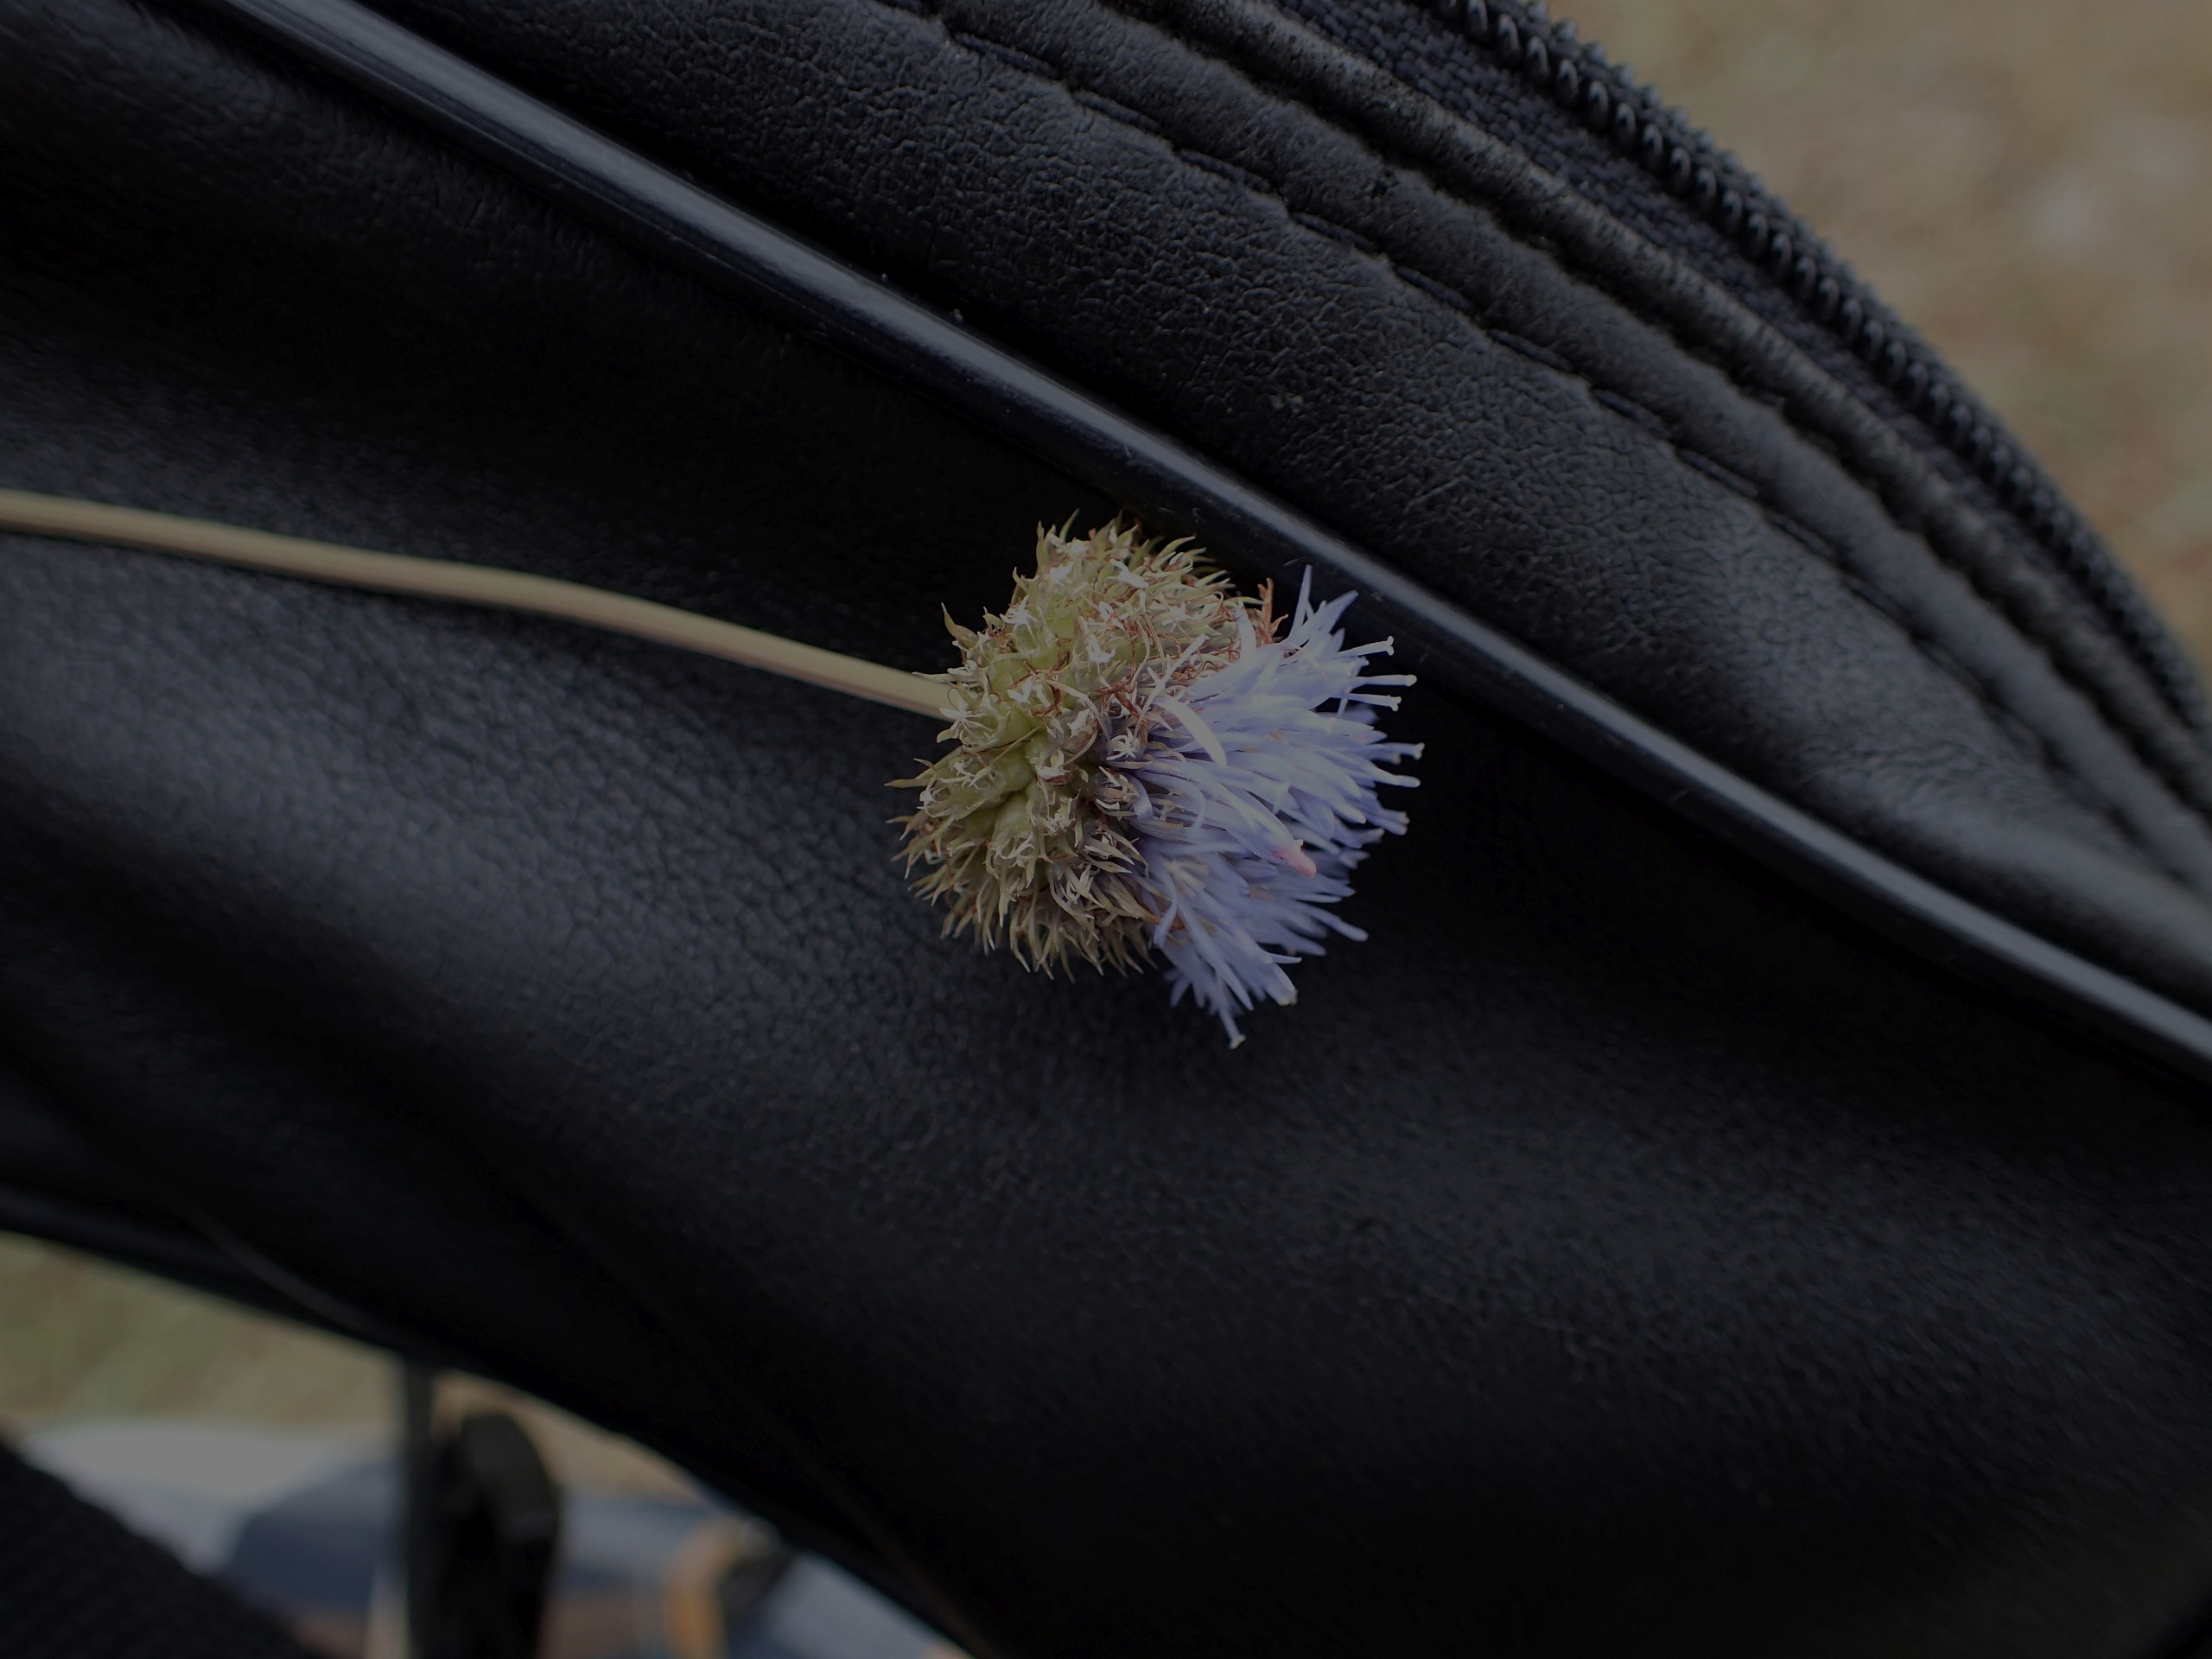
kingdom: Plantae
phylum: Tracheophyta
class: Magnoliopsida
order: Asterales
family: Campanulaceae
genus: Jasione
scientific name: Jasione montana
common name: Blåmunke
